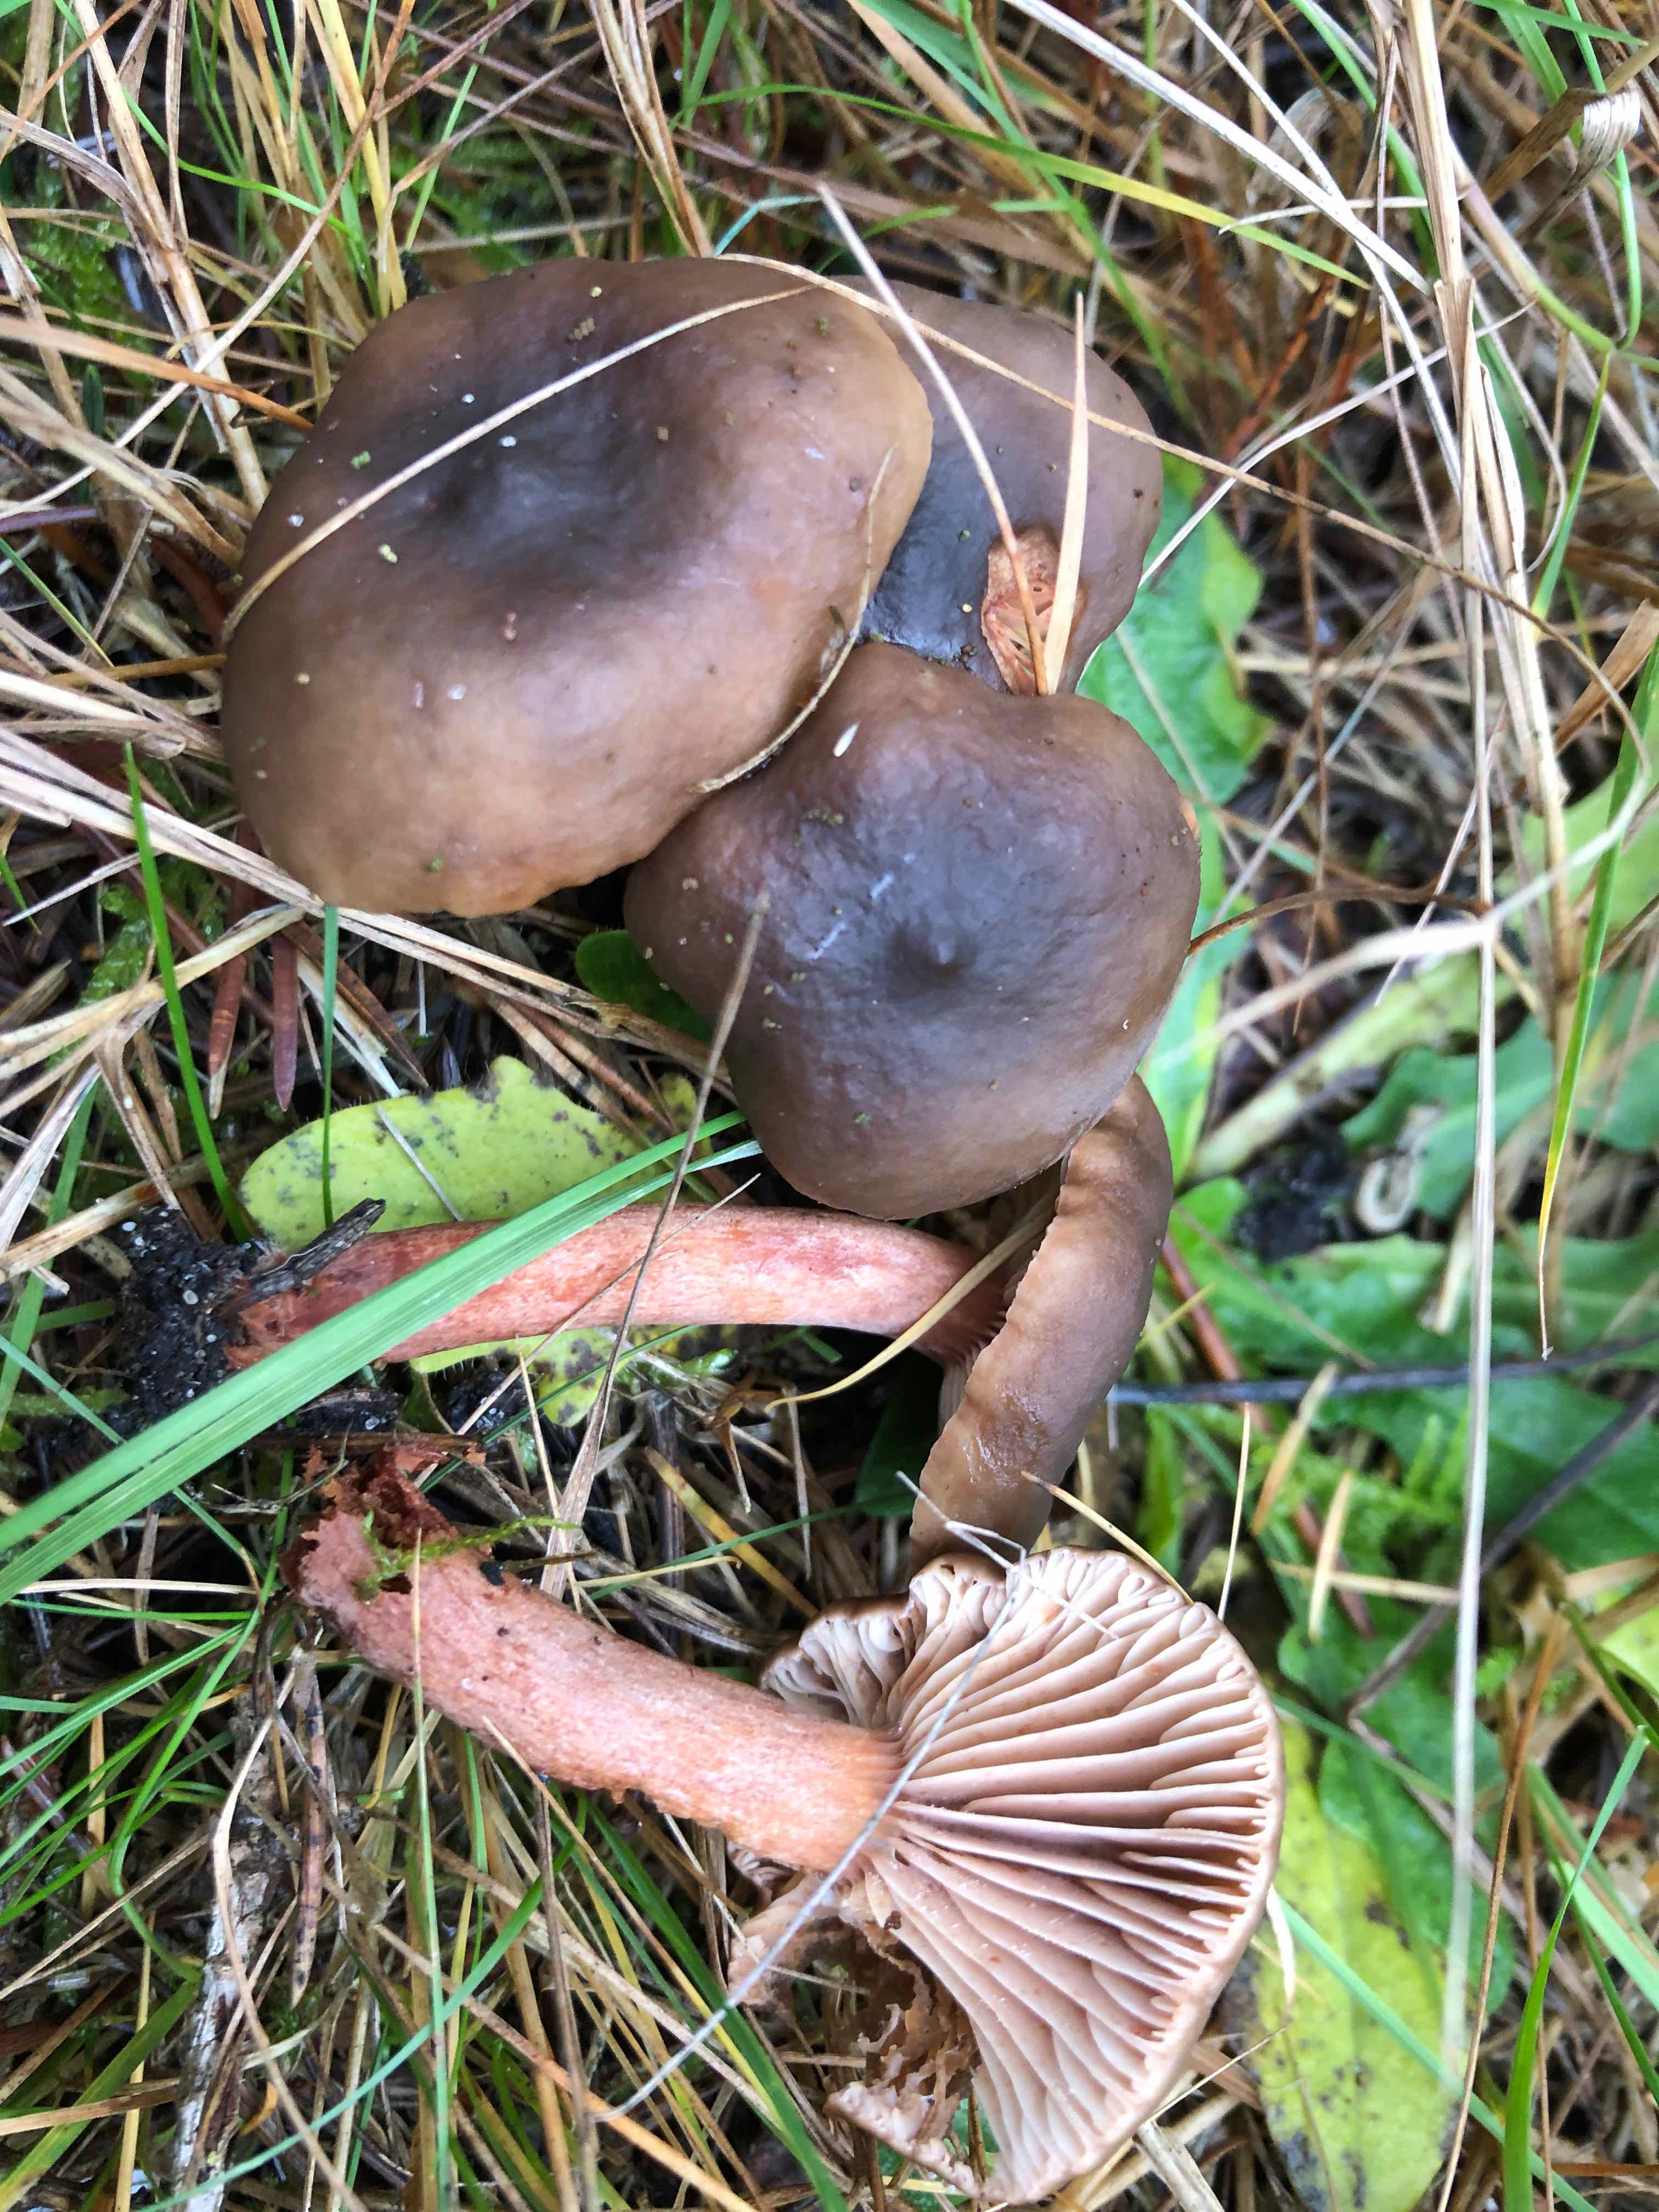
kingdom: Fungi
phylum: Basidiomycota
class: Agaricomycetes
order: Russulales
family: Russulaceae
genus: Lactarius
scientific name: Lactarius hepaticus
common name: leverbrun mælkehat
